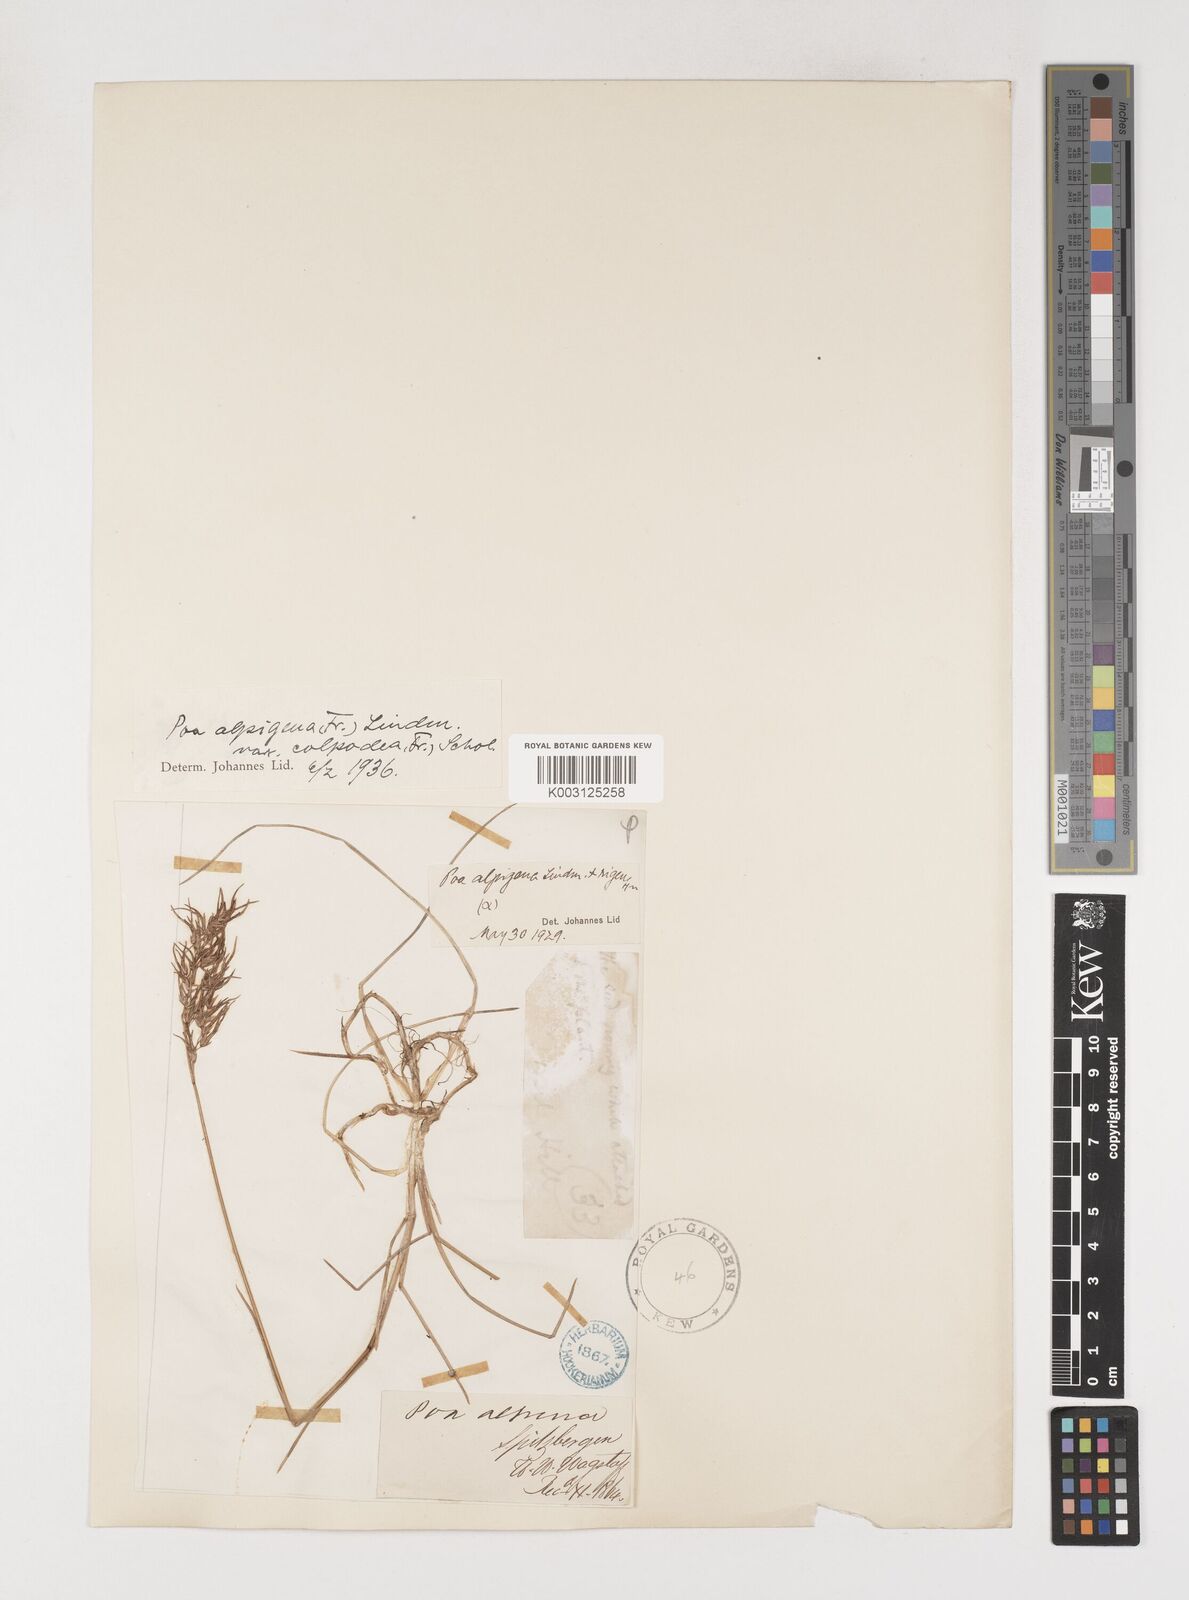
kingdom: Plantae
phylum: Tracheophyta
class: Liliopsida
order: Poales
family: Poaceae
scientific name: Poaceae
